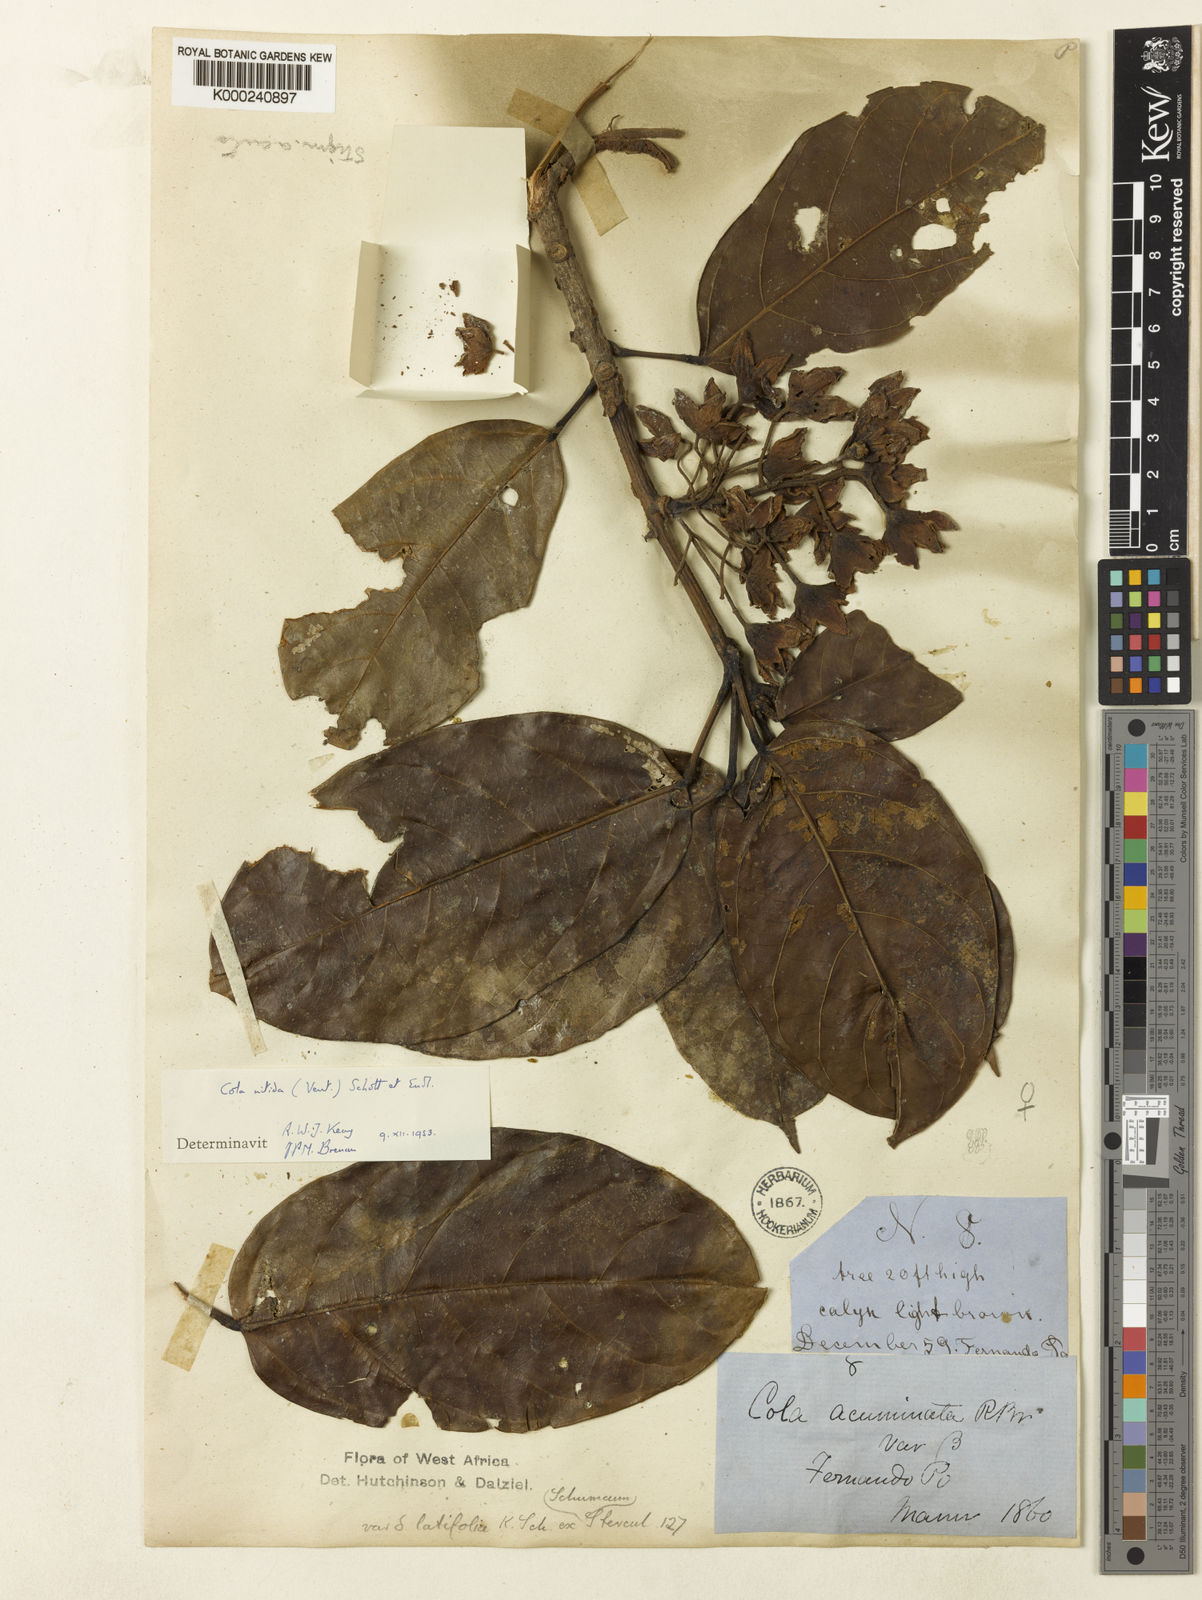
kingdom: Plantae
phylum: Tracheophyta
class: Magnoliopsida
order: Malvales
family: Malvaceae
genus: Cola
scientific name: Cola nitida
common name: Kola nut
